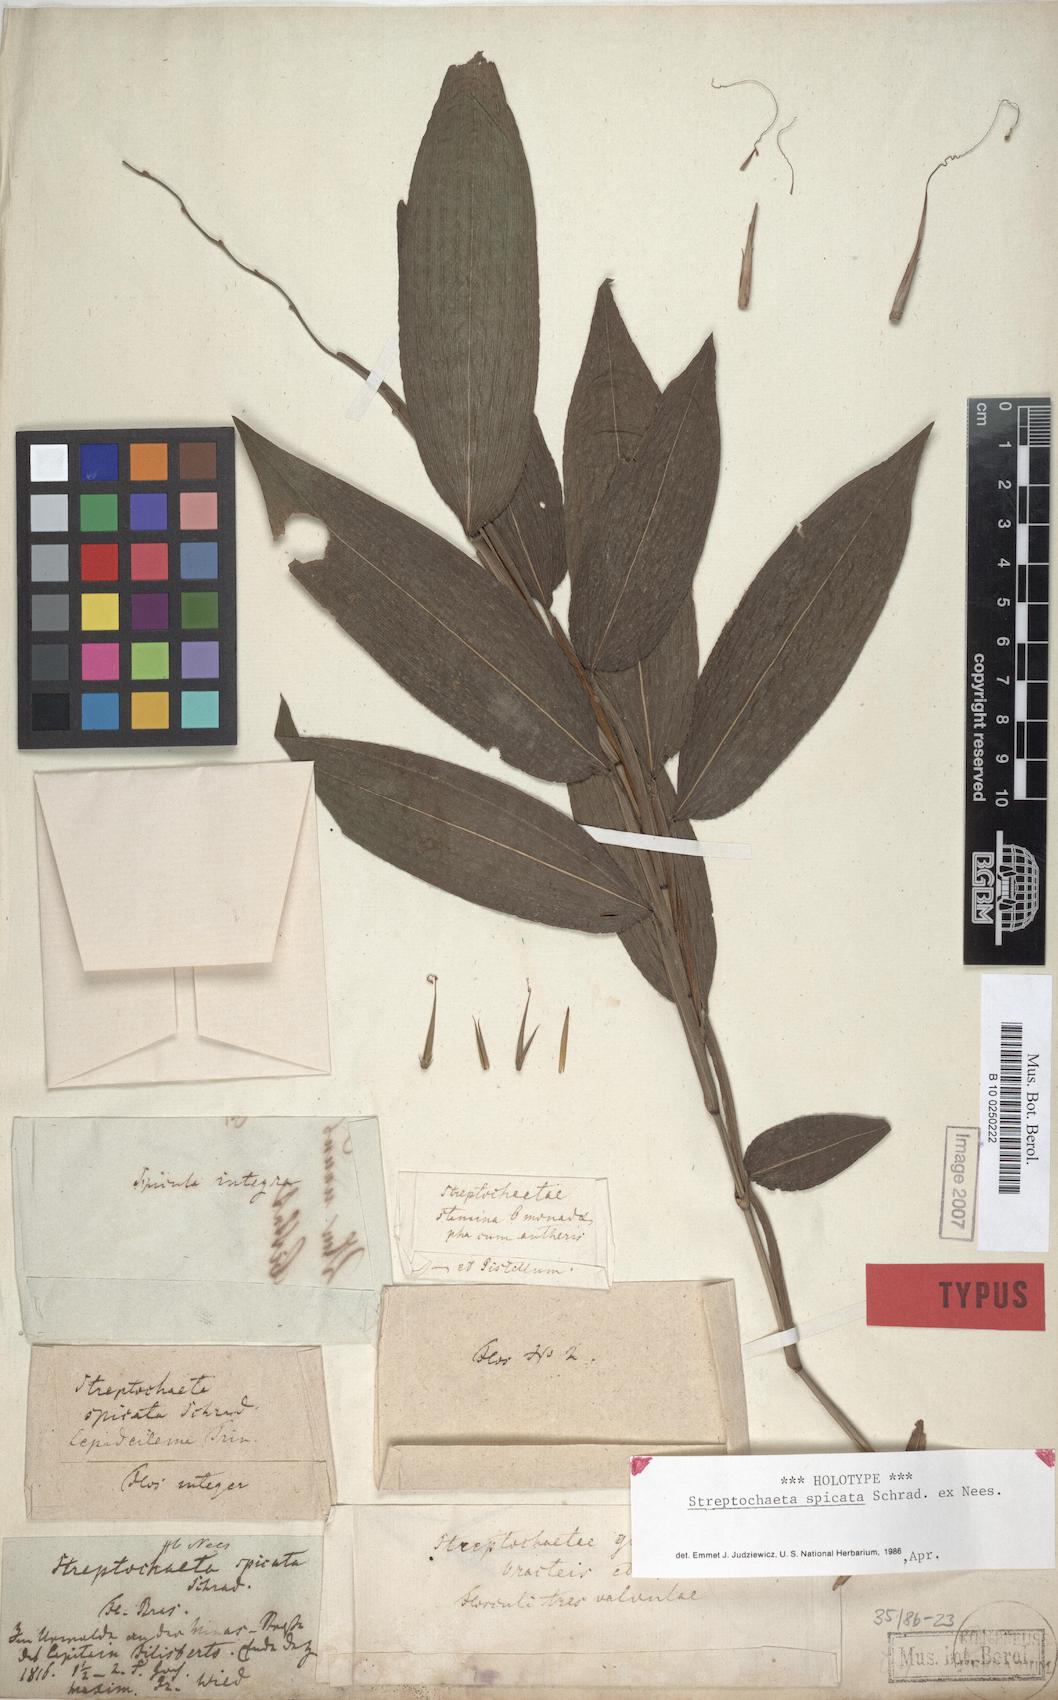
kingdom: Plantae
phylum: Tracheophyta
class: Liliopsida
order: Poales
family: Poaceae
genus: Streptochaeta
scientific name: Streptochaeta spicata
